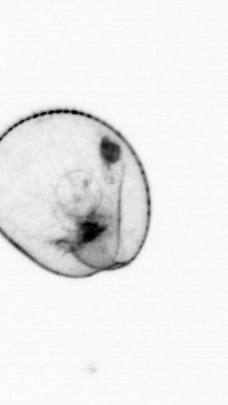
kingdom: Chromista
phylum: Myzozoa
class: Dinophyceae
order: Noctilucales
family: Noctilucaceae
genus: Noctiluca
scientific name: Noctiluca scintillans
